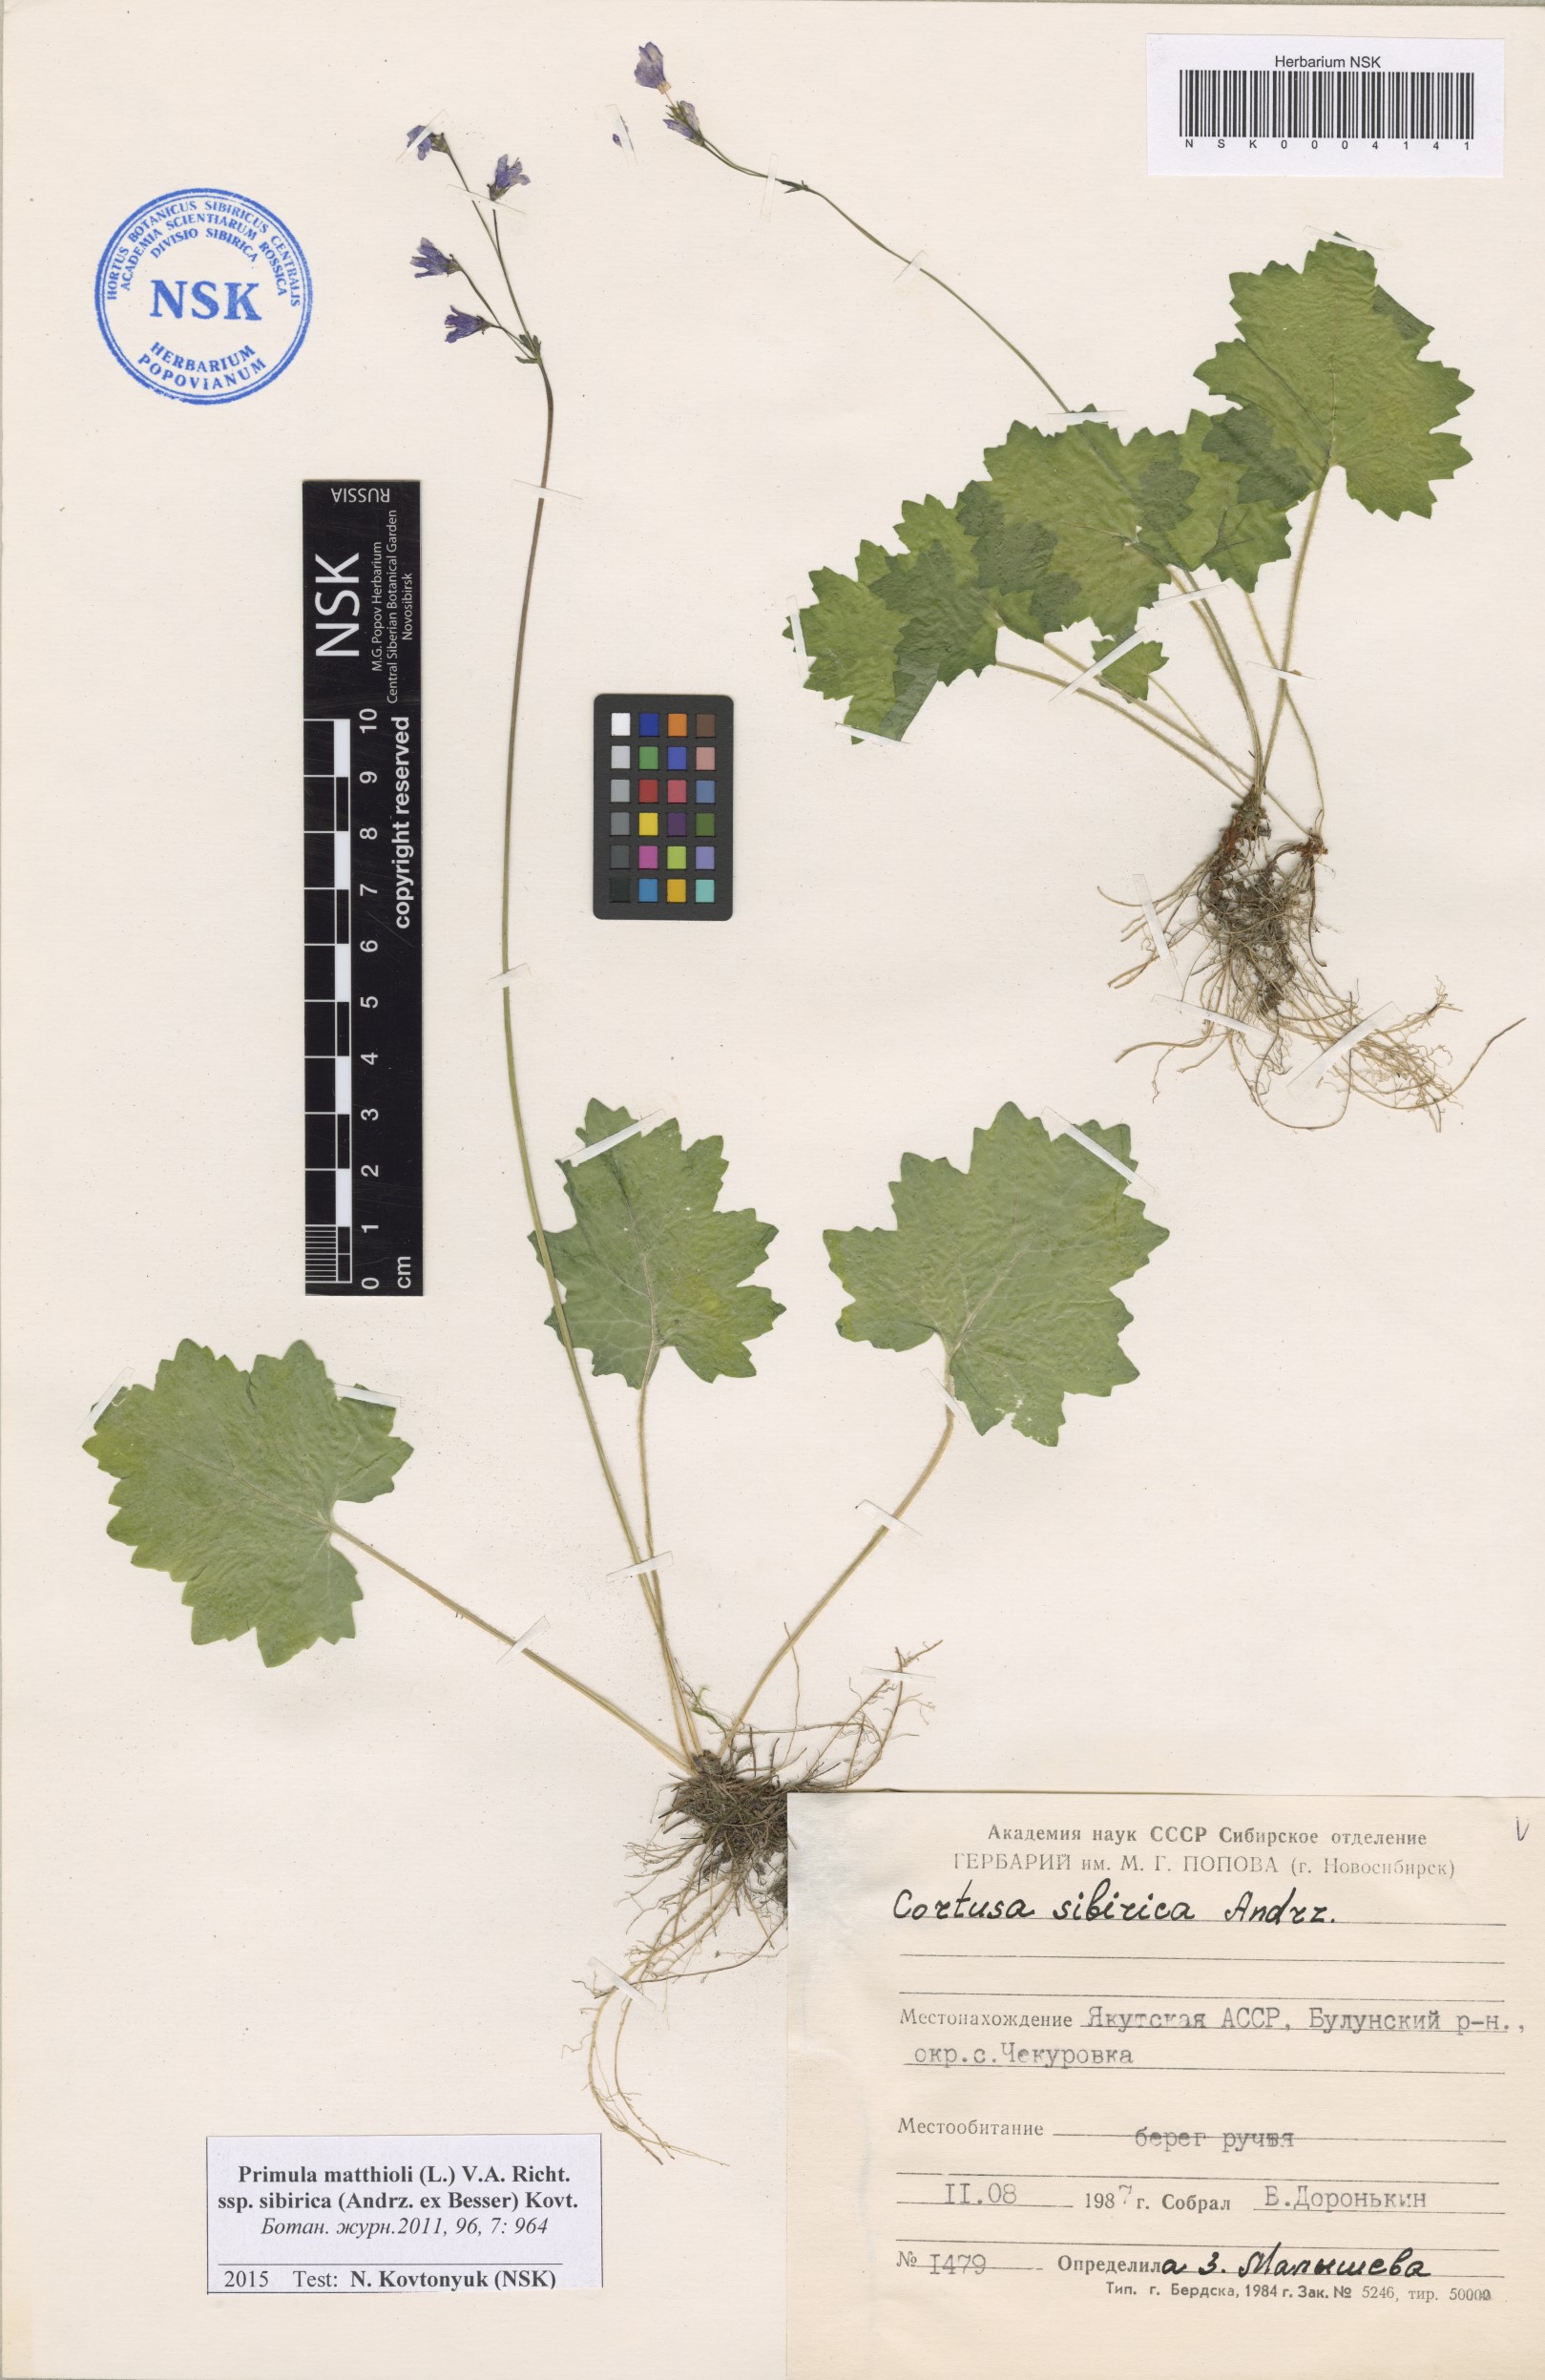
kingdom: Plantae
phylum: Tracheophyta
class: Magnoliopsida
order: Ericales
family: Primulaceae
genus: Primula
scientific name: Primula matthioli
